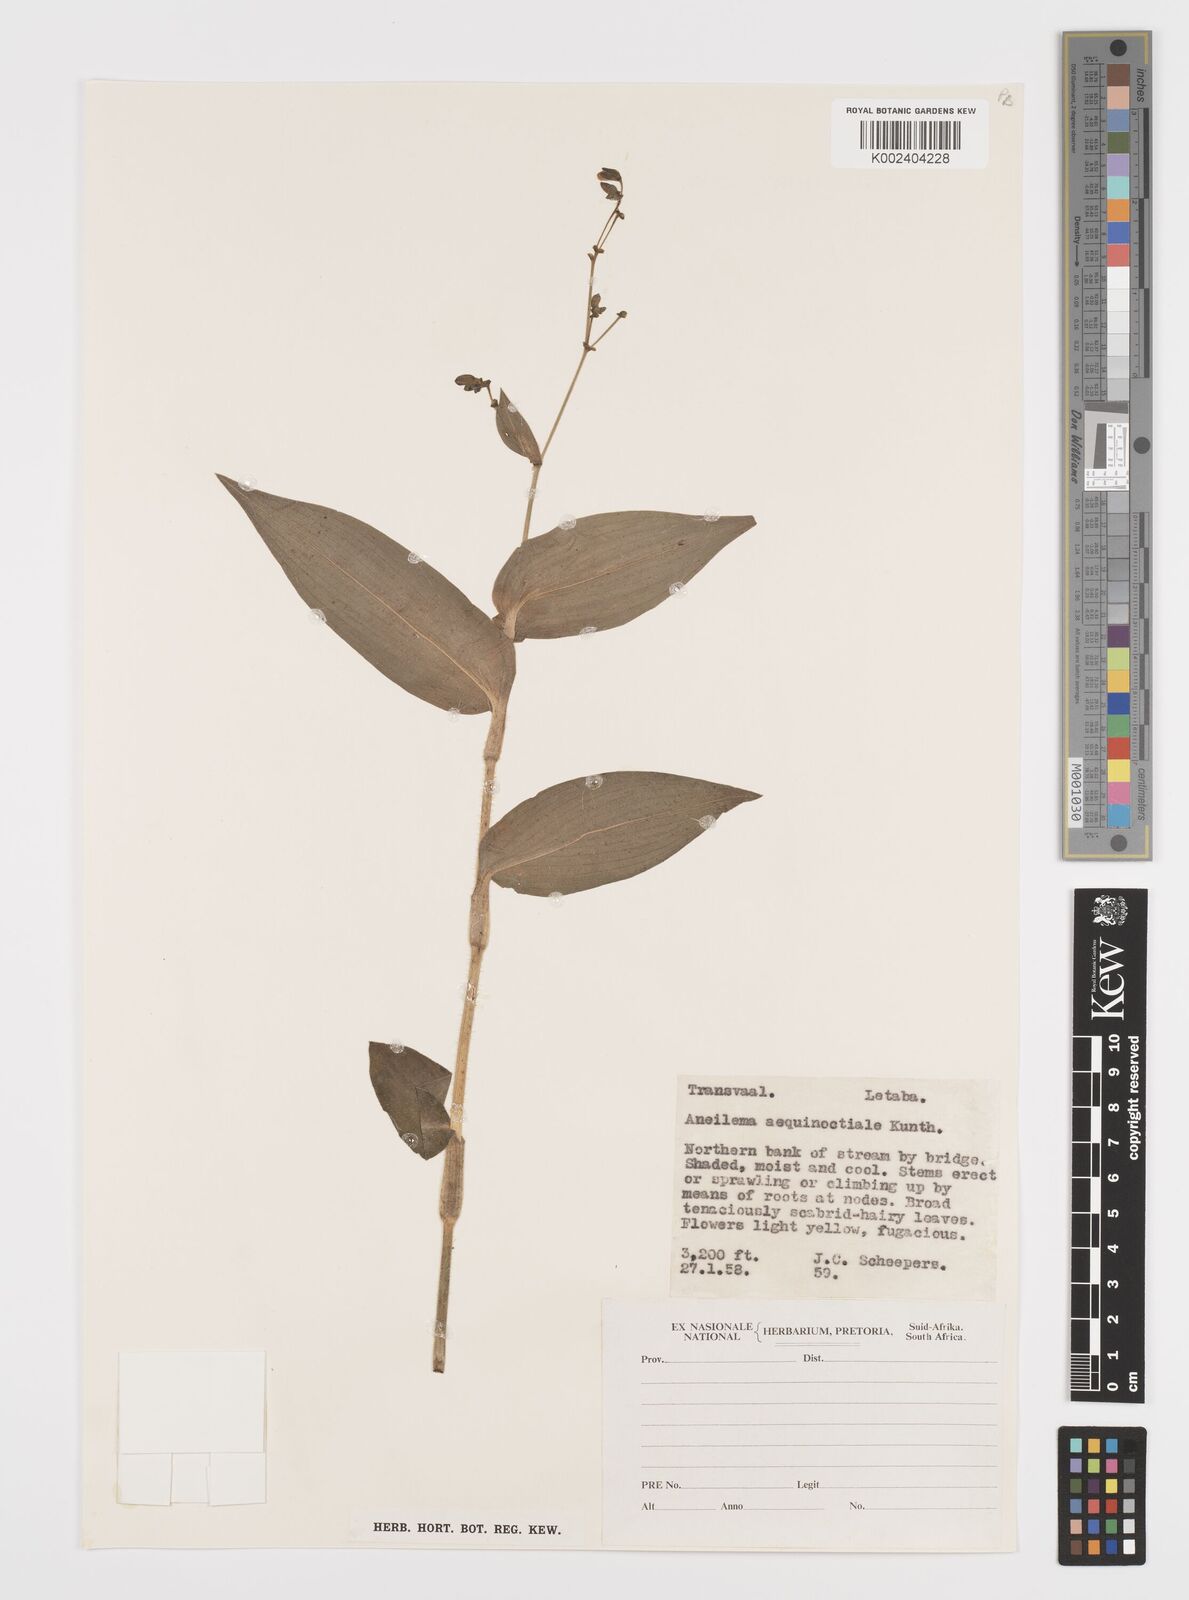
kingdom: Plantae
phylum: Tracheophyta
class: Liliopsida
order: Commelinales
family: Commelinaceae
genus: Aneilema
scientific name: Aneilema aequinoctiale
